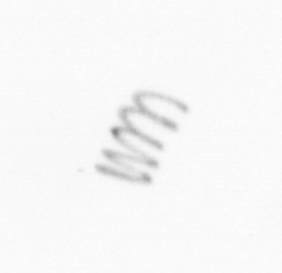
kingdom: Chromista
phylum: Ochrophyta
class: Bacillariophyceae
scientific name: Bacillariophyceae
